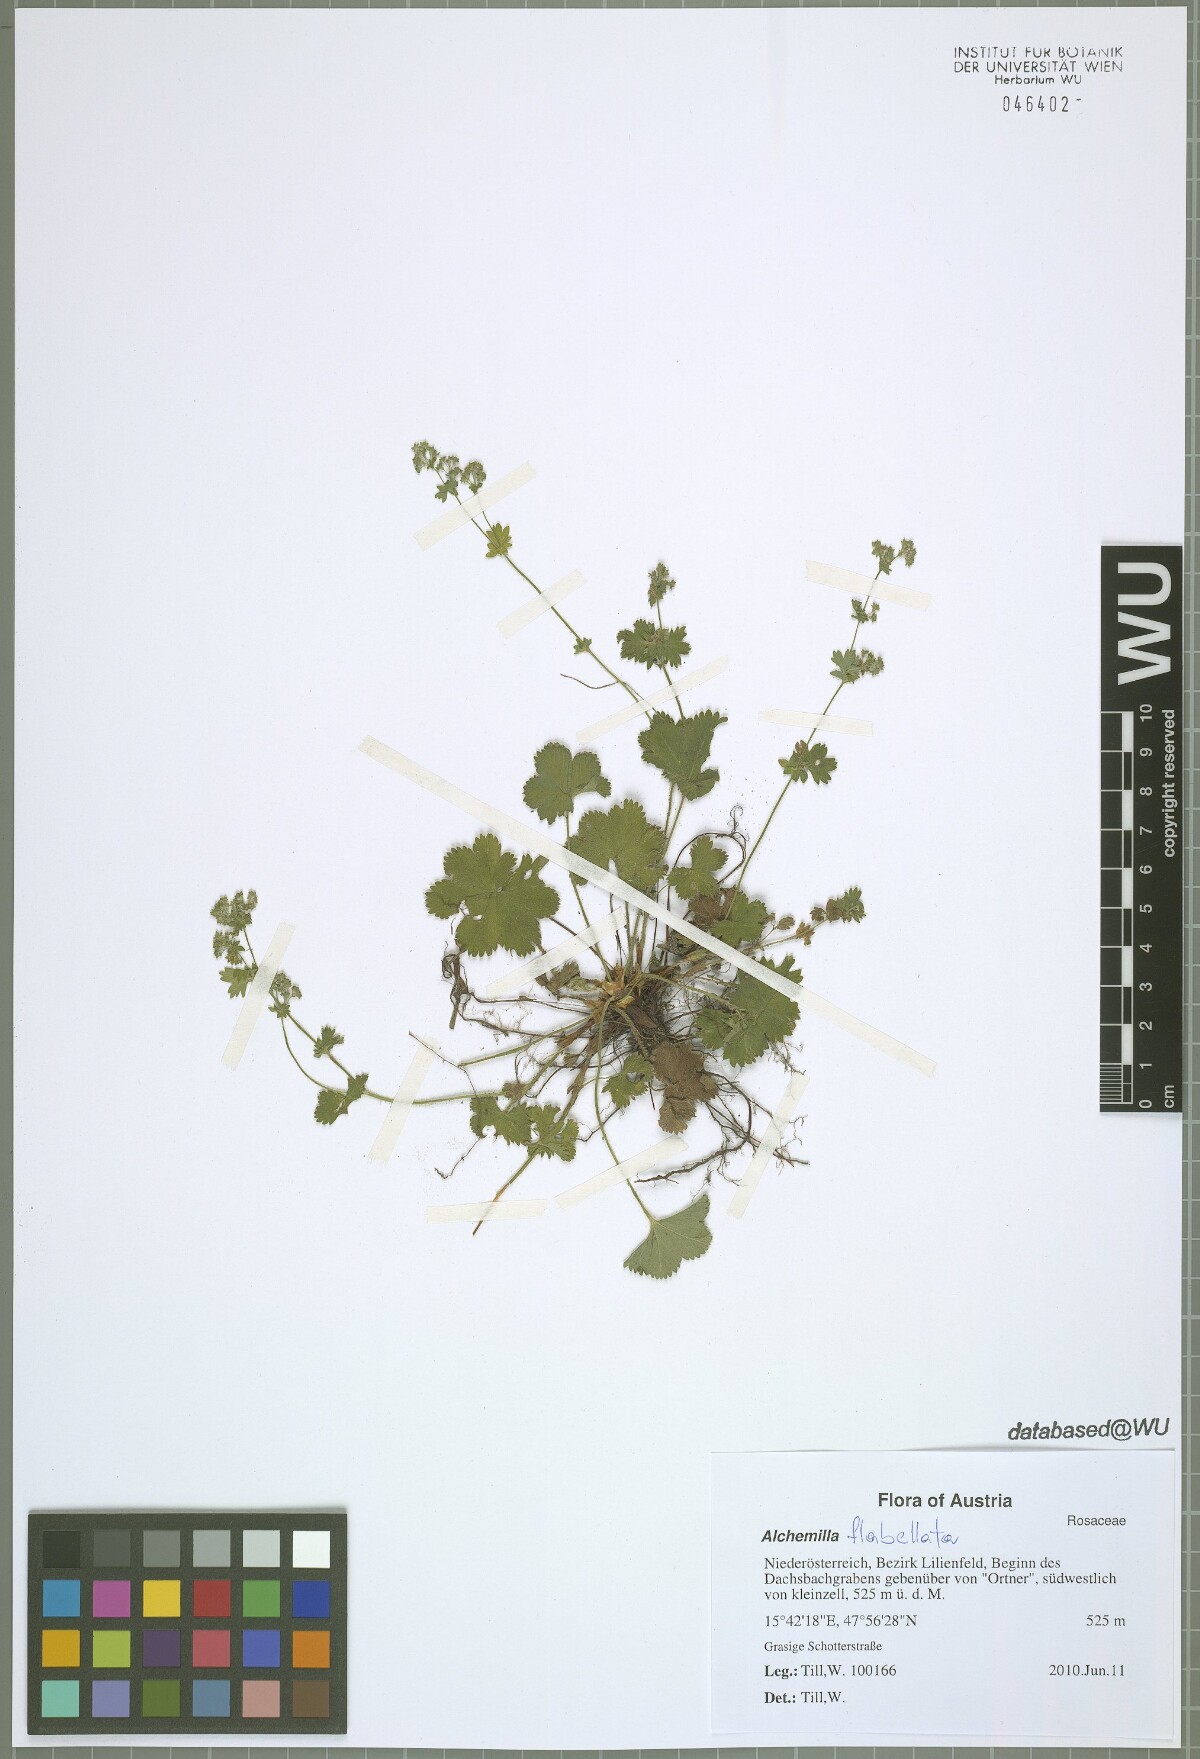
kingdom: Plantae
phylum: Tracheophyta
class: Magnoliopsida
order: Rosales
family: Rosaceae
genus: Alchemilla
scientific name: Alchemilla glaucescens
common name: Silky lady's mantle
